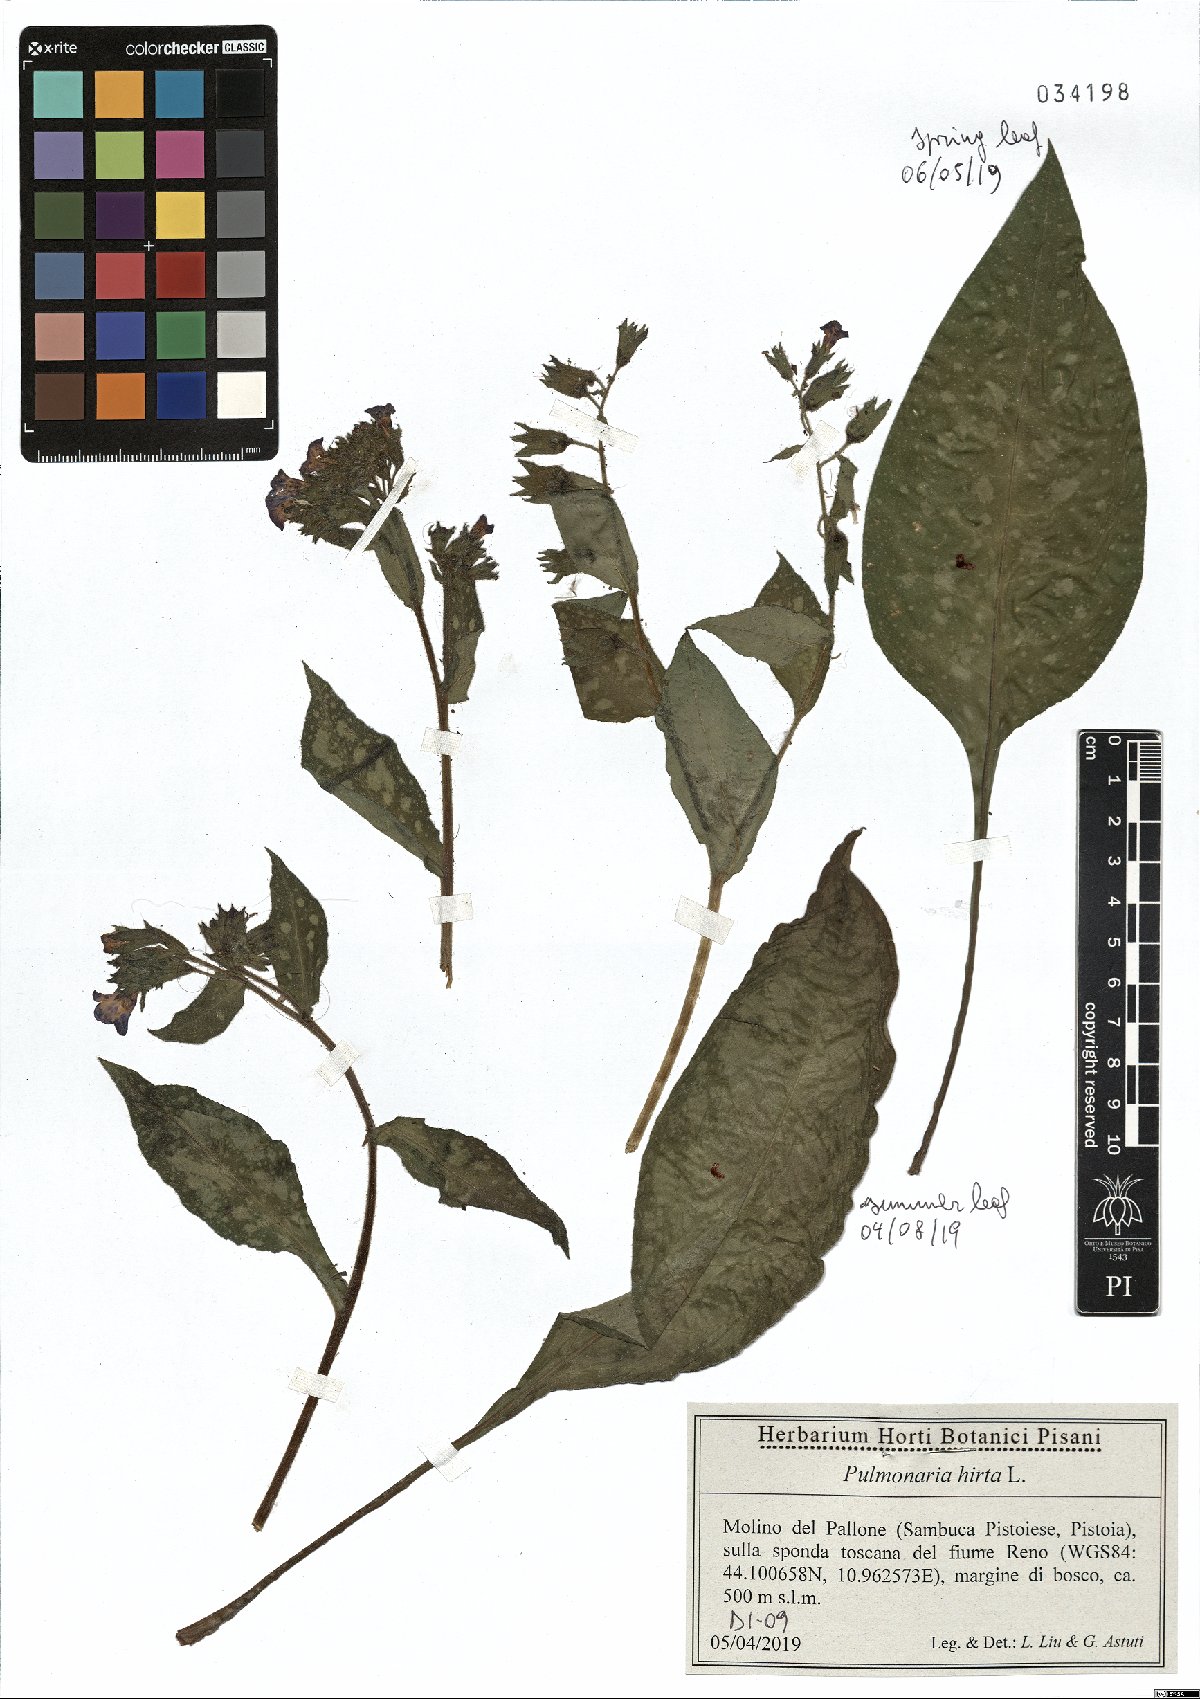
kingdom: Plantae
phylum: Tracheophyta
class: Magnoliopsida
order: Boraginales
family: Boraginaceae
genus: Pulmonaria
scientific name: Pulmonaria hirta
